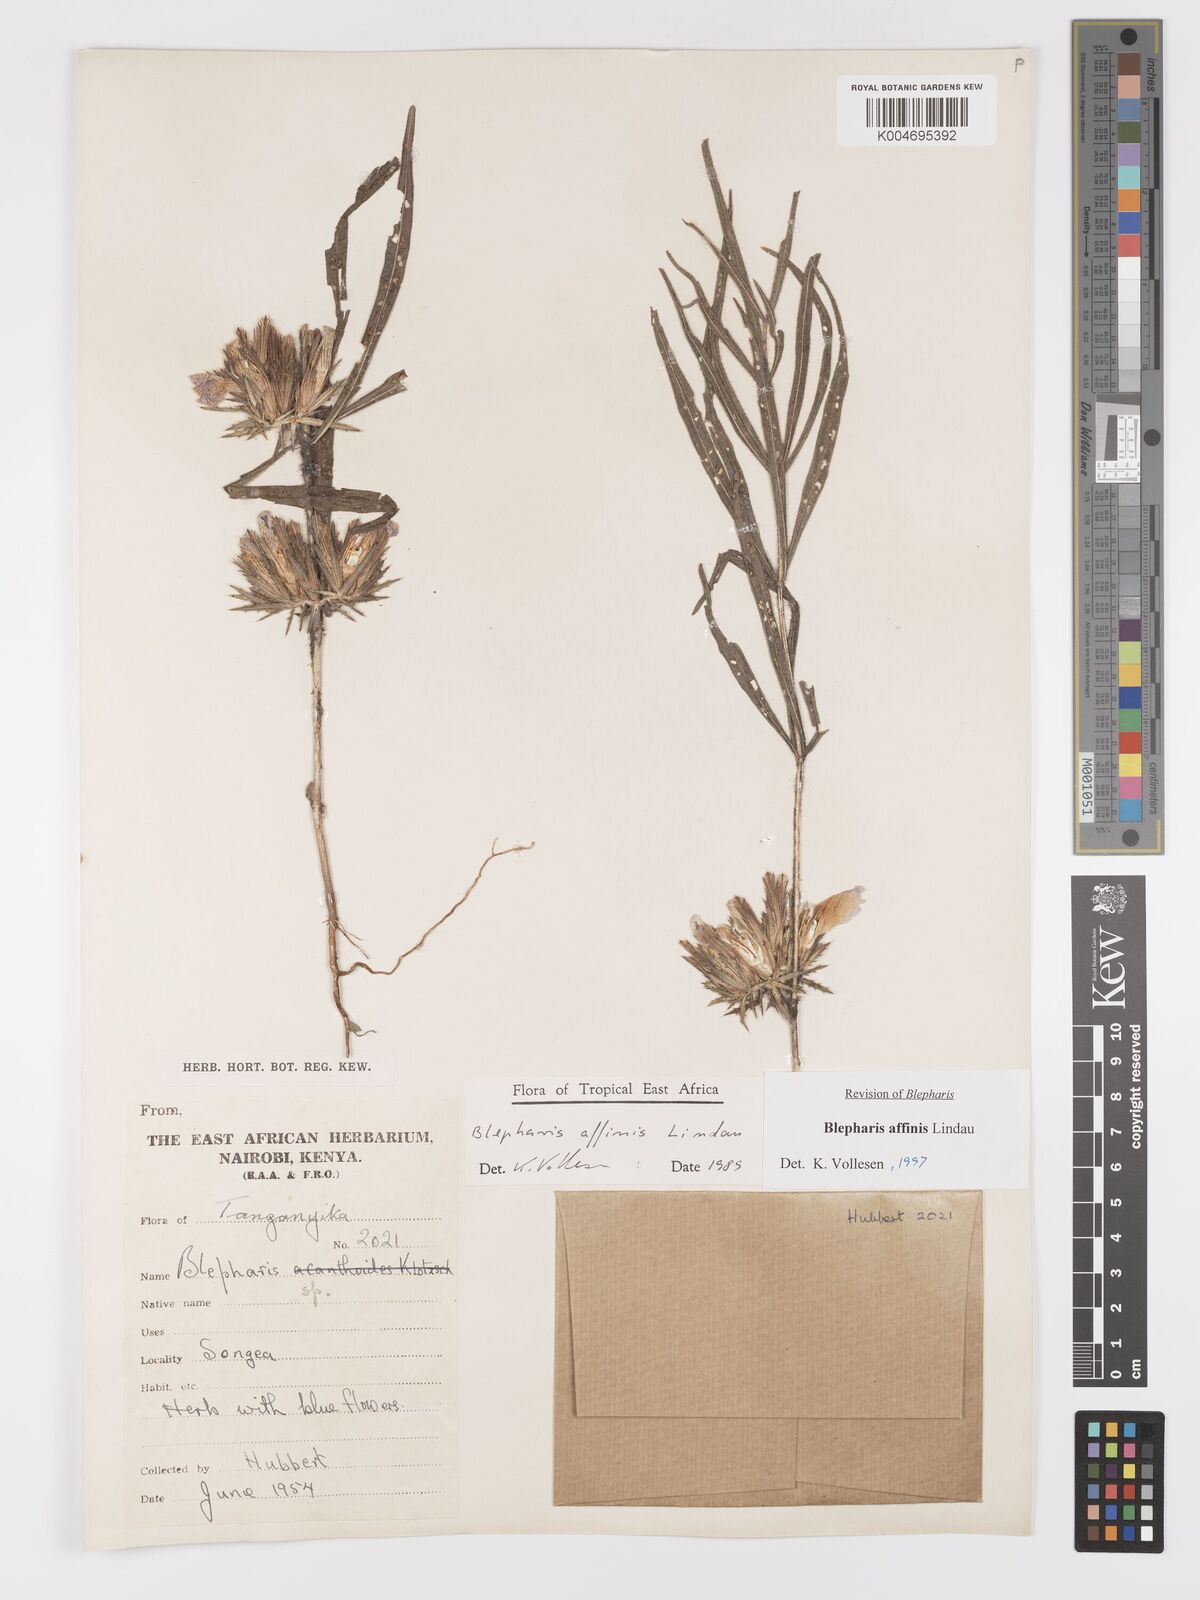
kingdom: Plantae
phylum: Tracheophyta
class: Magnoliopsida
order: Lamiales
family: Acanthaceae
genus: Blepharis
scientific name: Blepharis affinis
